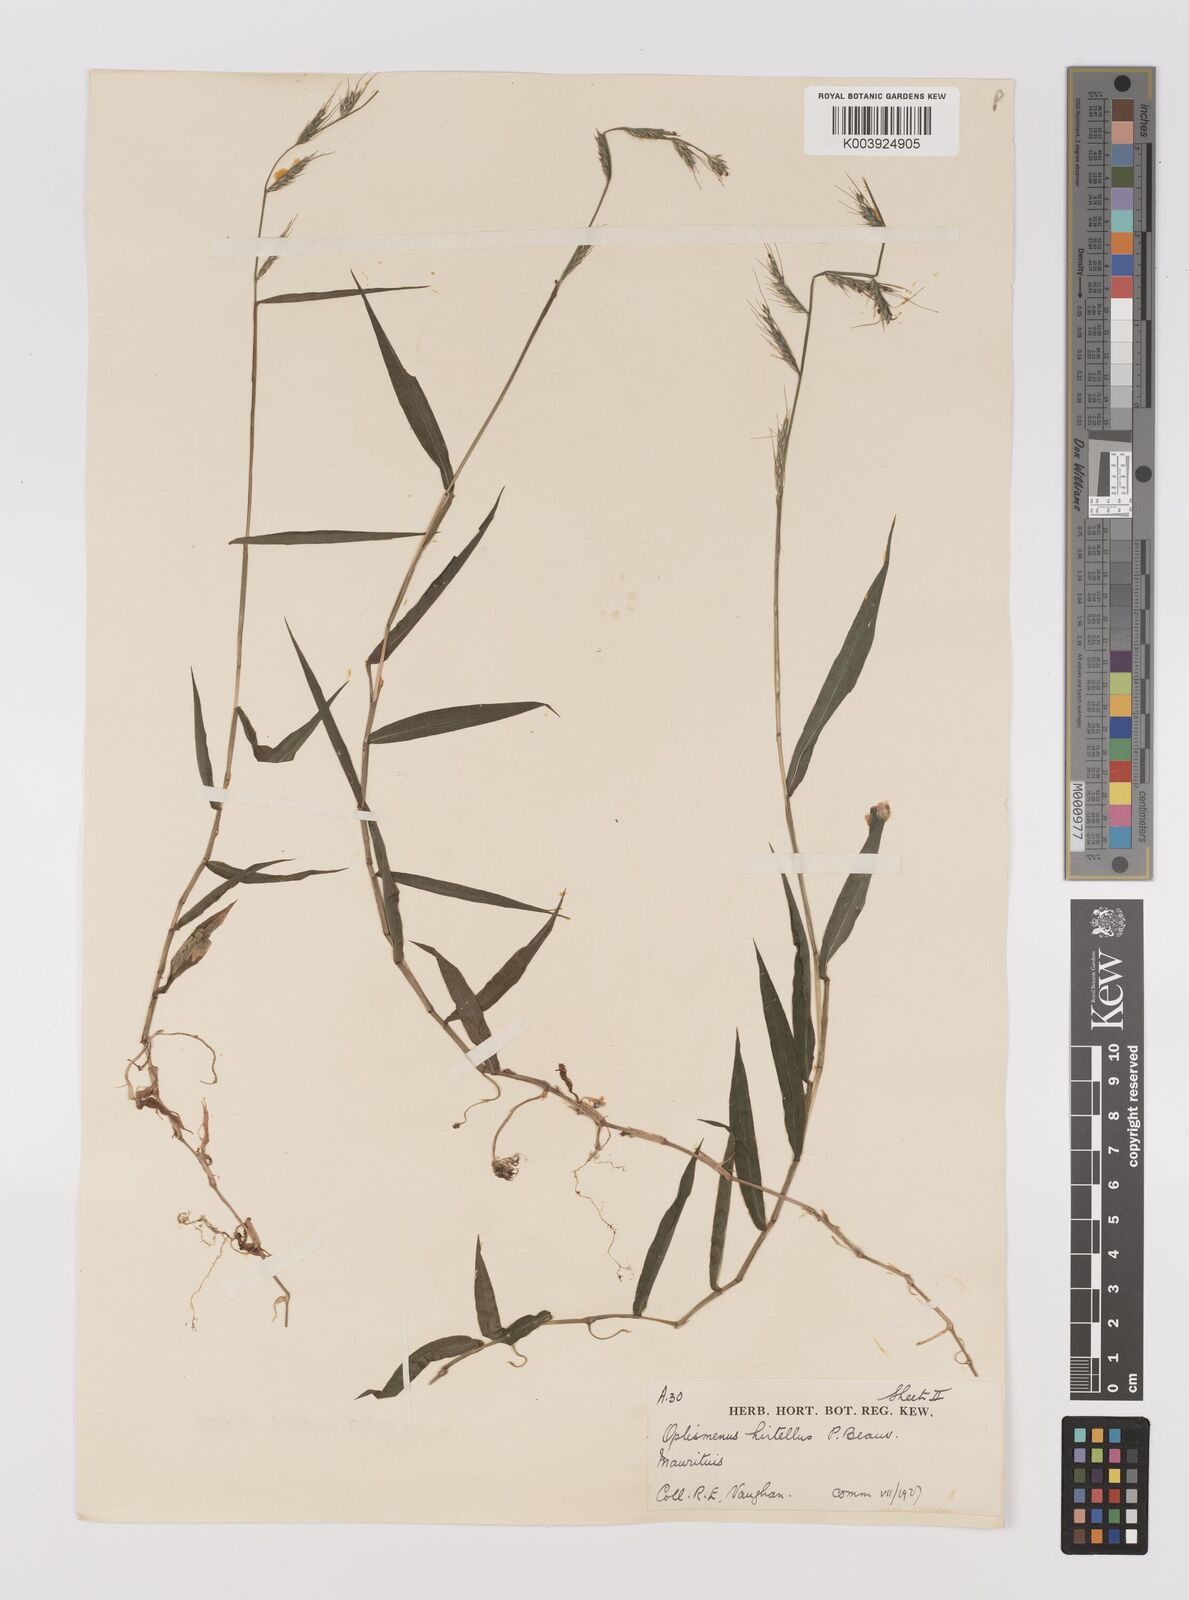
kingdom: Plantae
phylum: Tracheophyta
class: Liliopsida
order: Poales
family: Poaceae
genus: Oplismenus
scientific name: Oplismenus hirtellus
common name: Basketgrass
